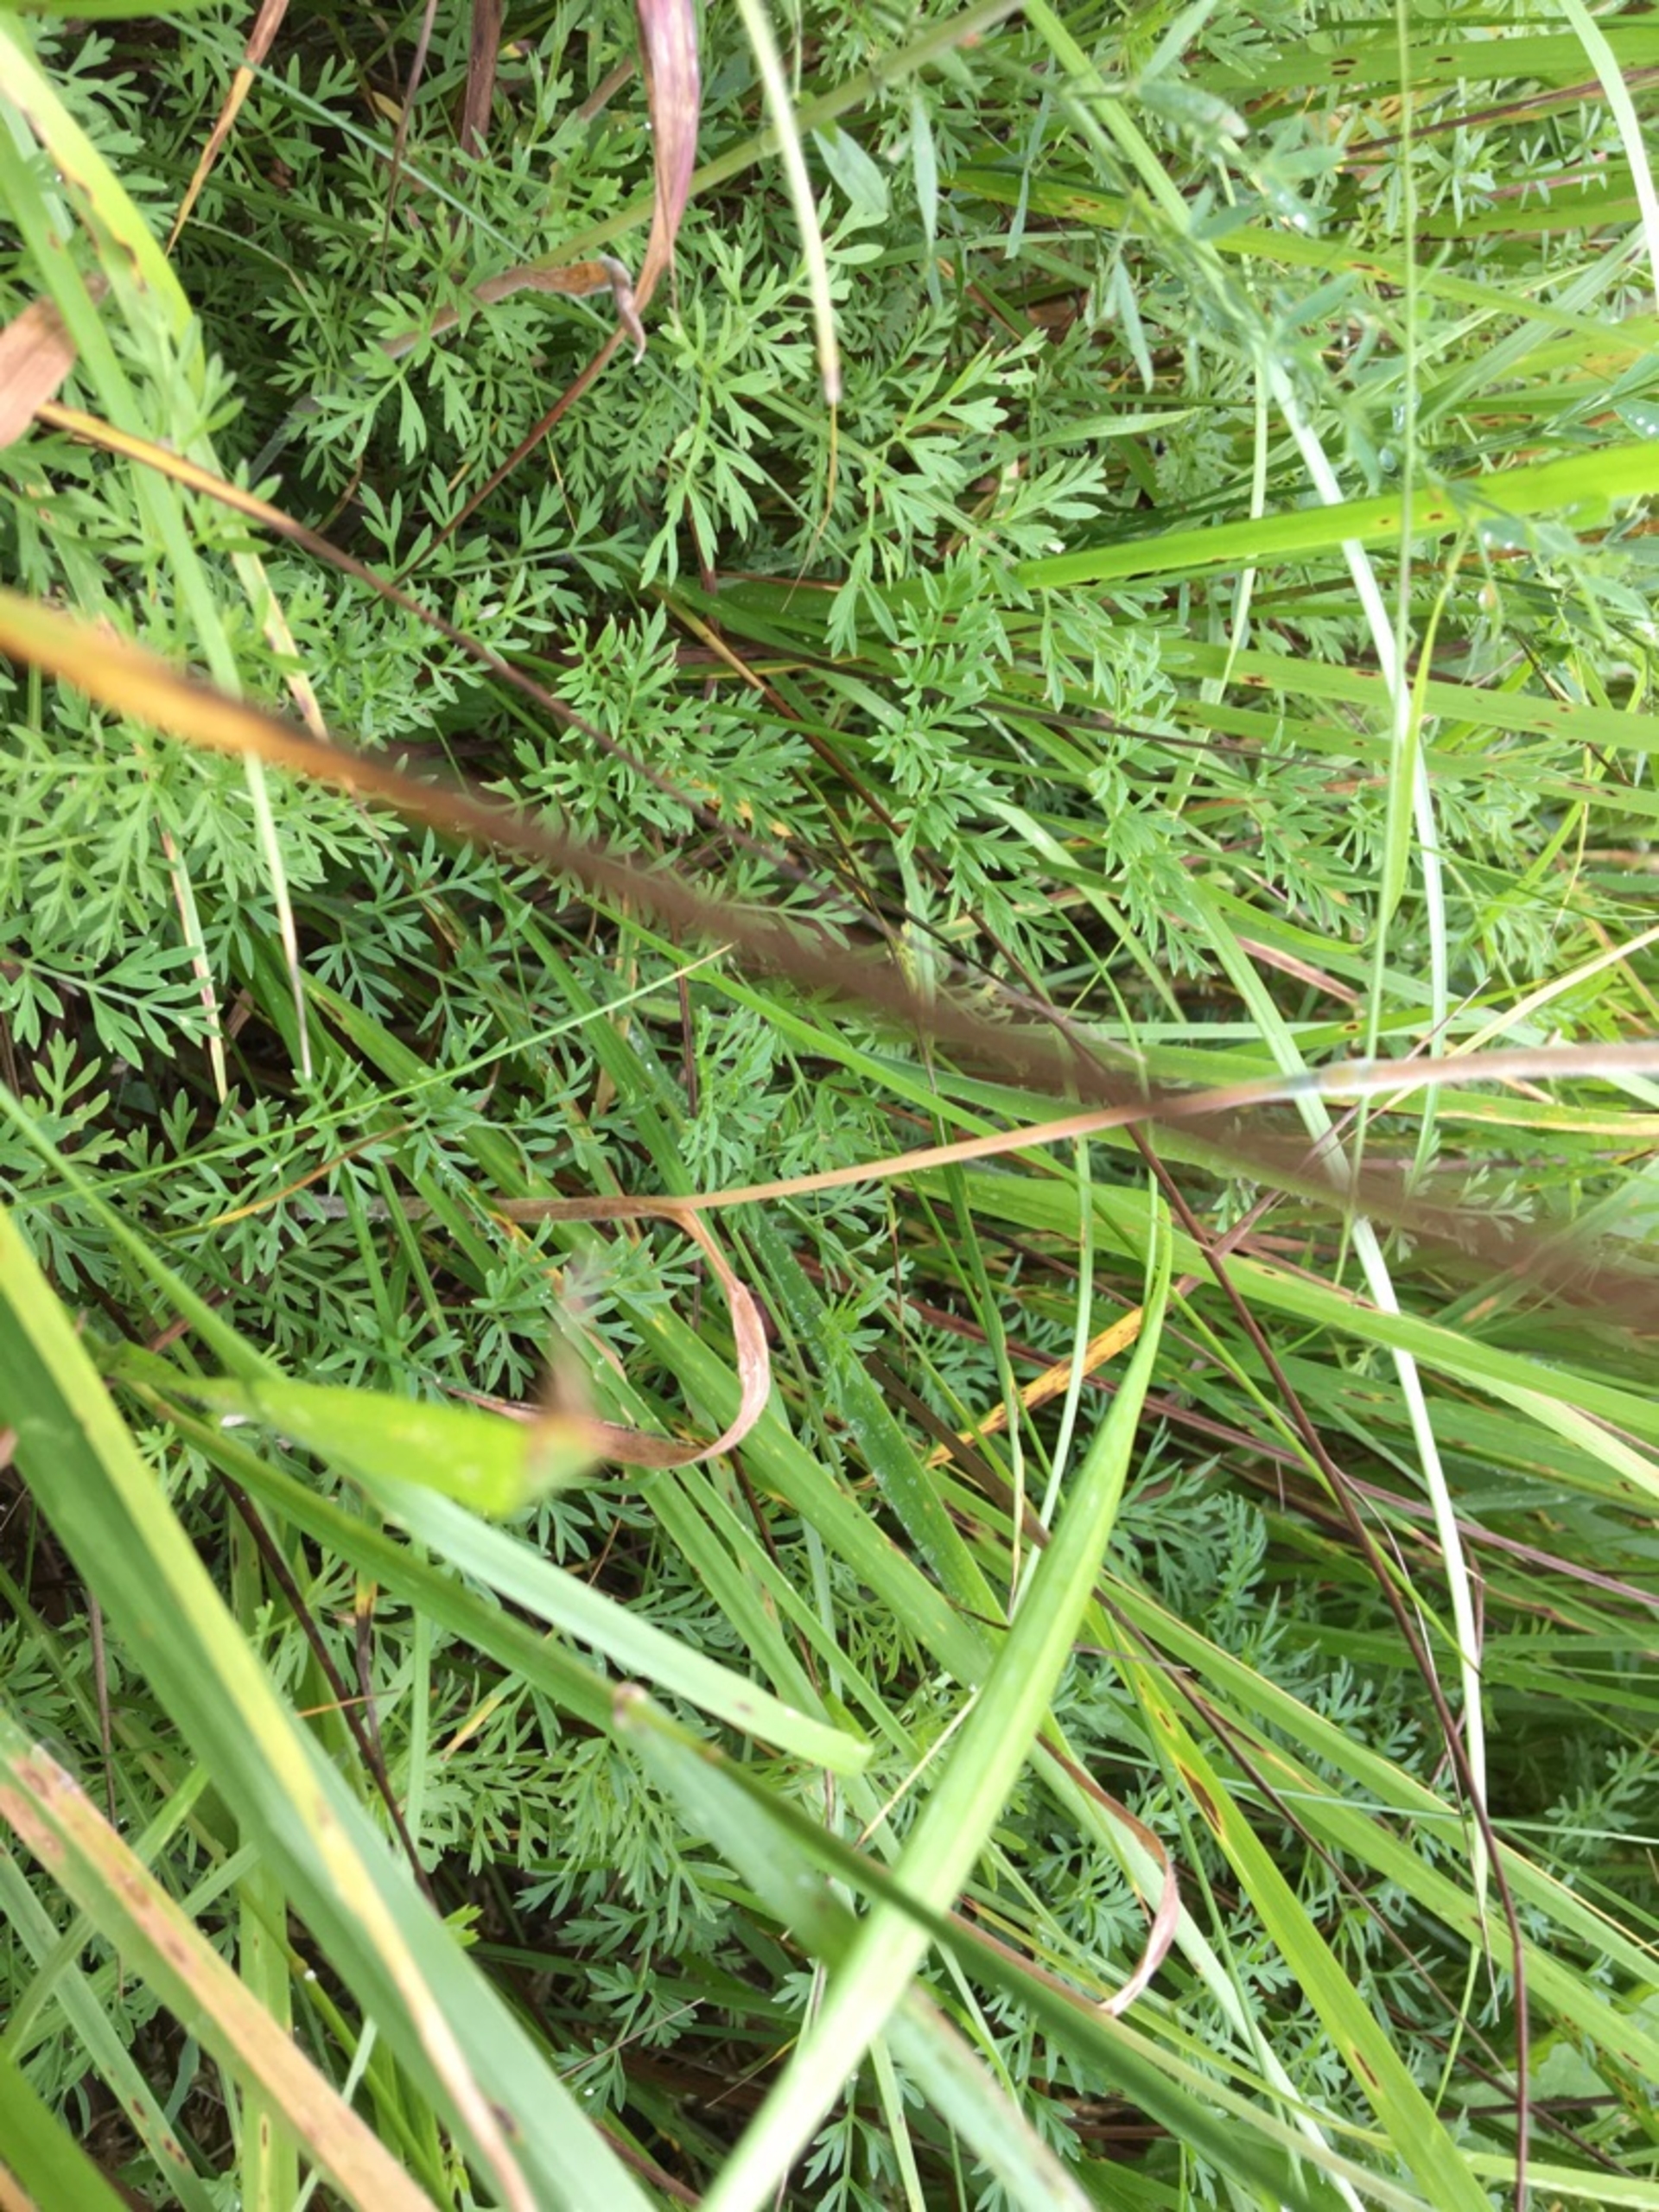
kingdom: Plantae
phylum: Tracheophyta
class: Magnoliopsida
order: Apiales
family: Apiaceae
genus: Selinum
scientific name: Selinum carvifolia
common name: Seline
